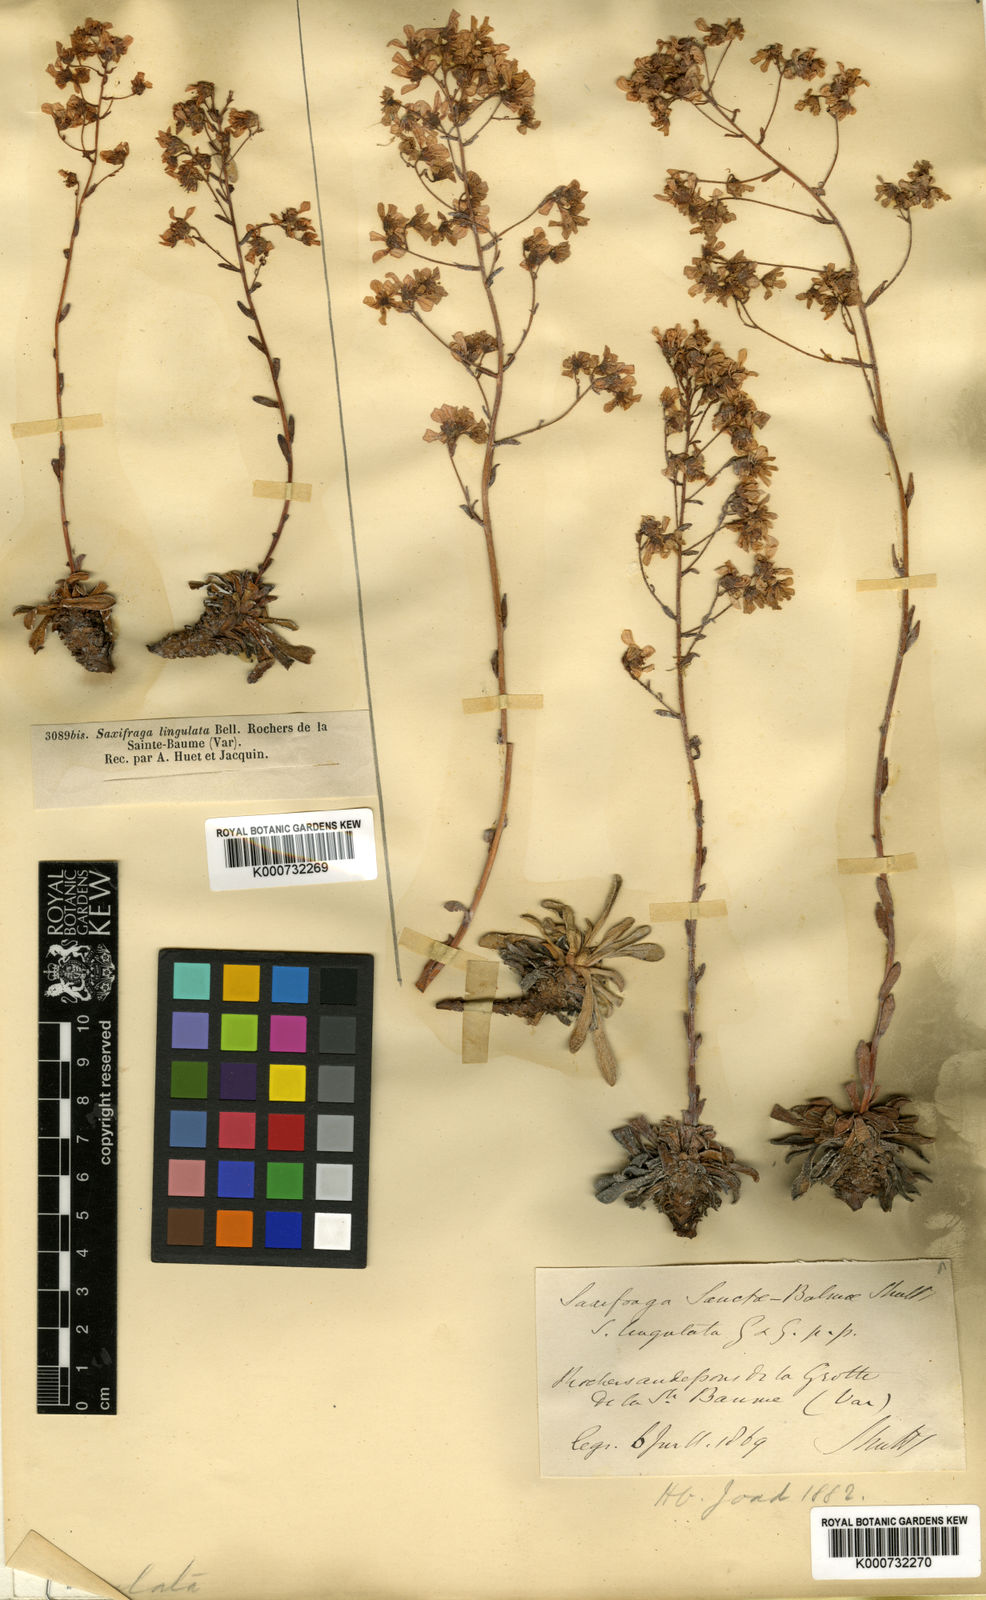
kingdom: Plantae
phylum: Tracheophyta
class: Magnoliopsida
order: Saxifragales
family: Saxifragaceae
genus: Saxifraga
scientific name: Saxifraga callosa
